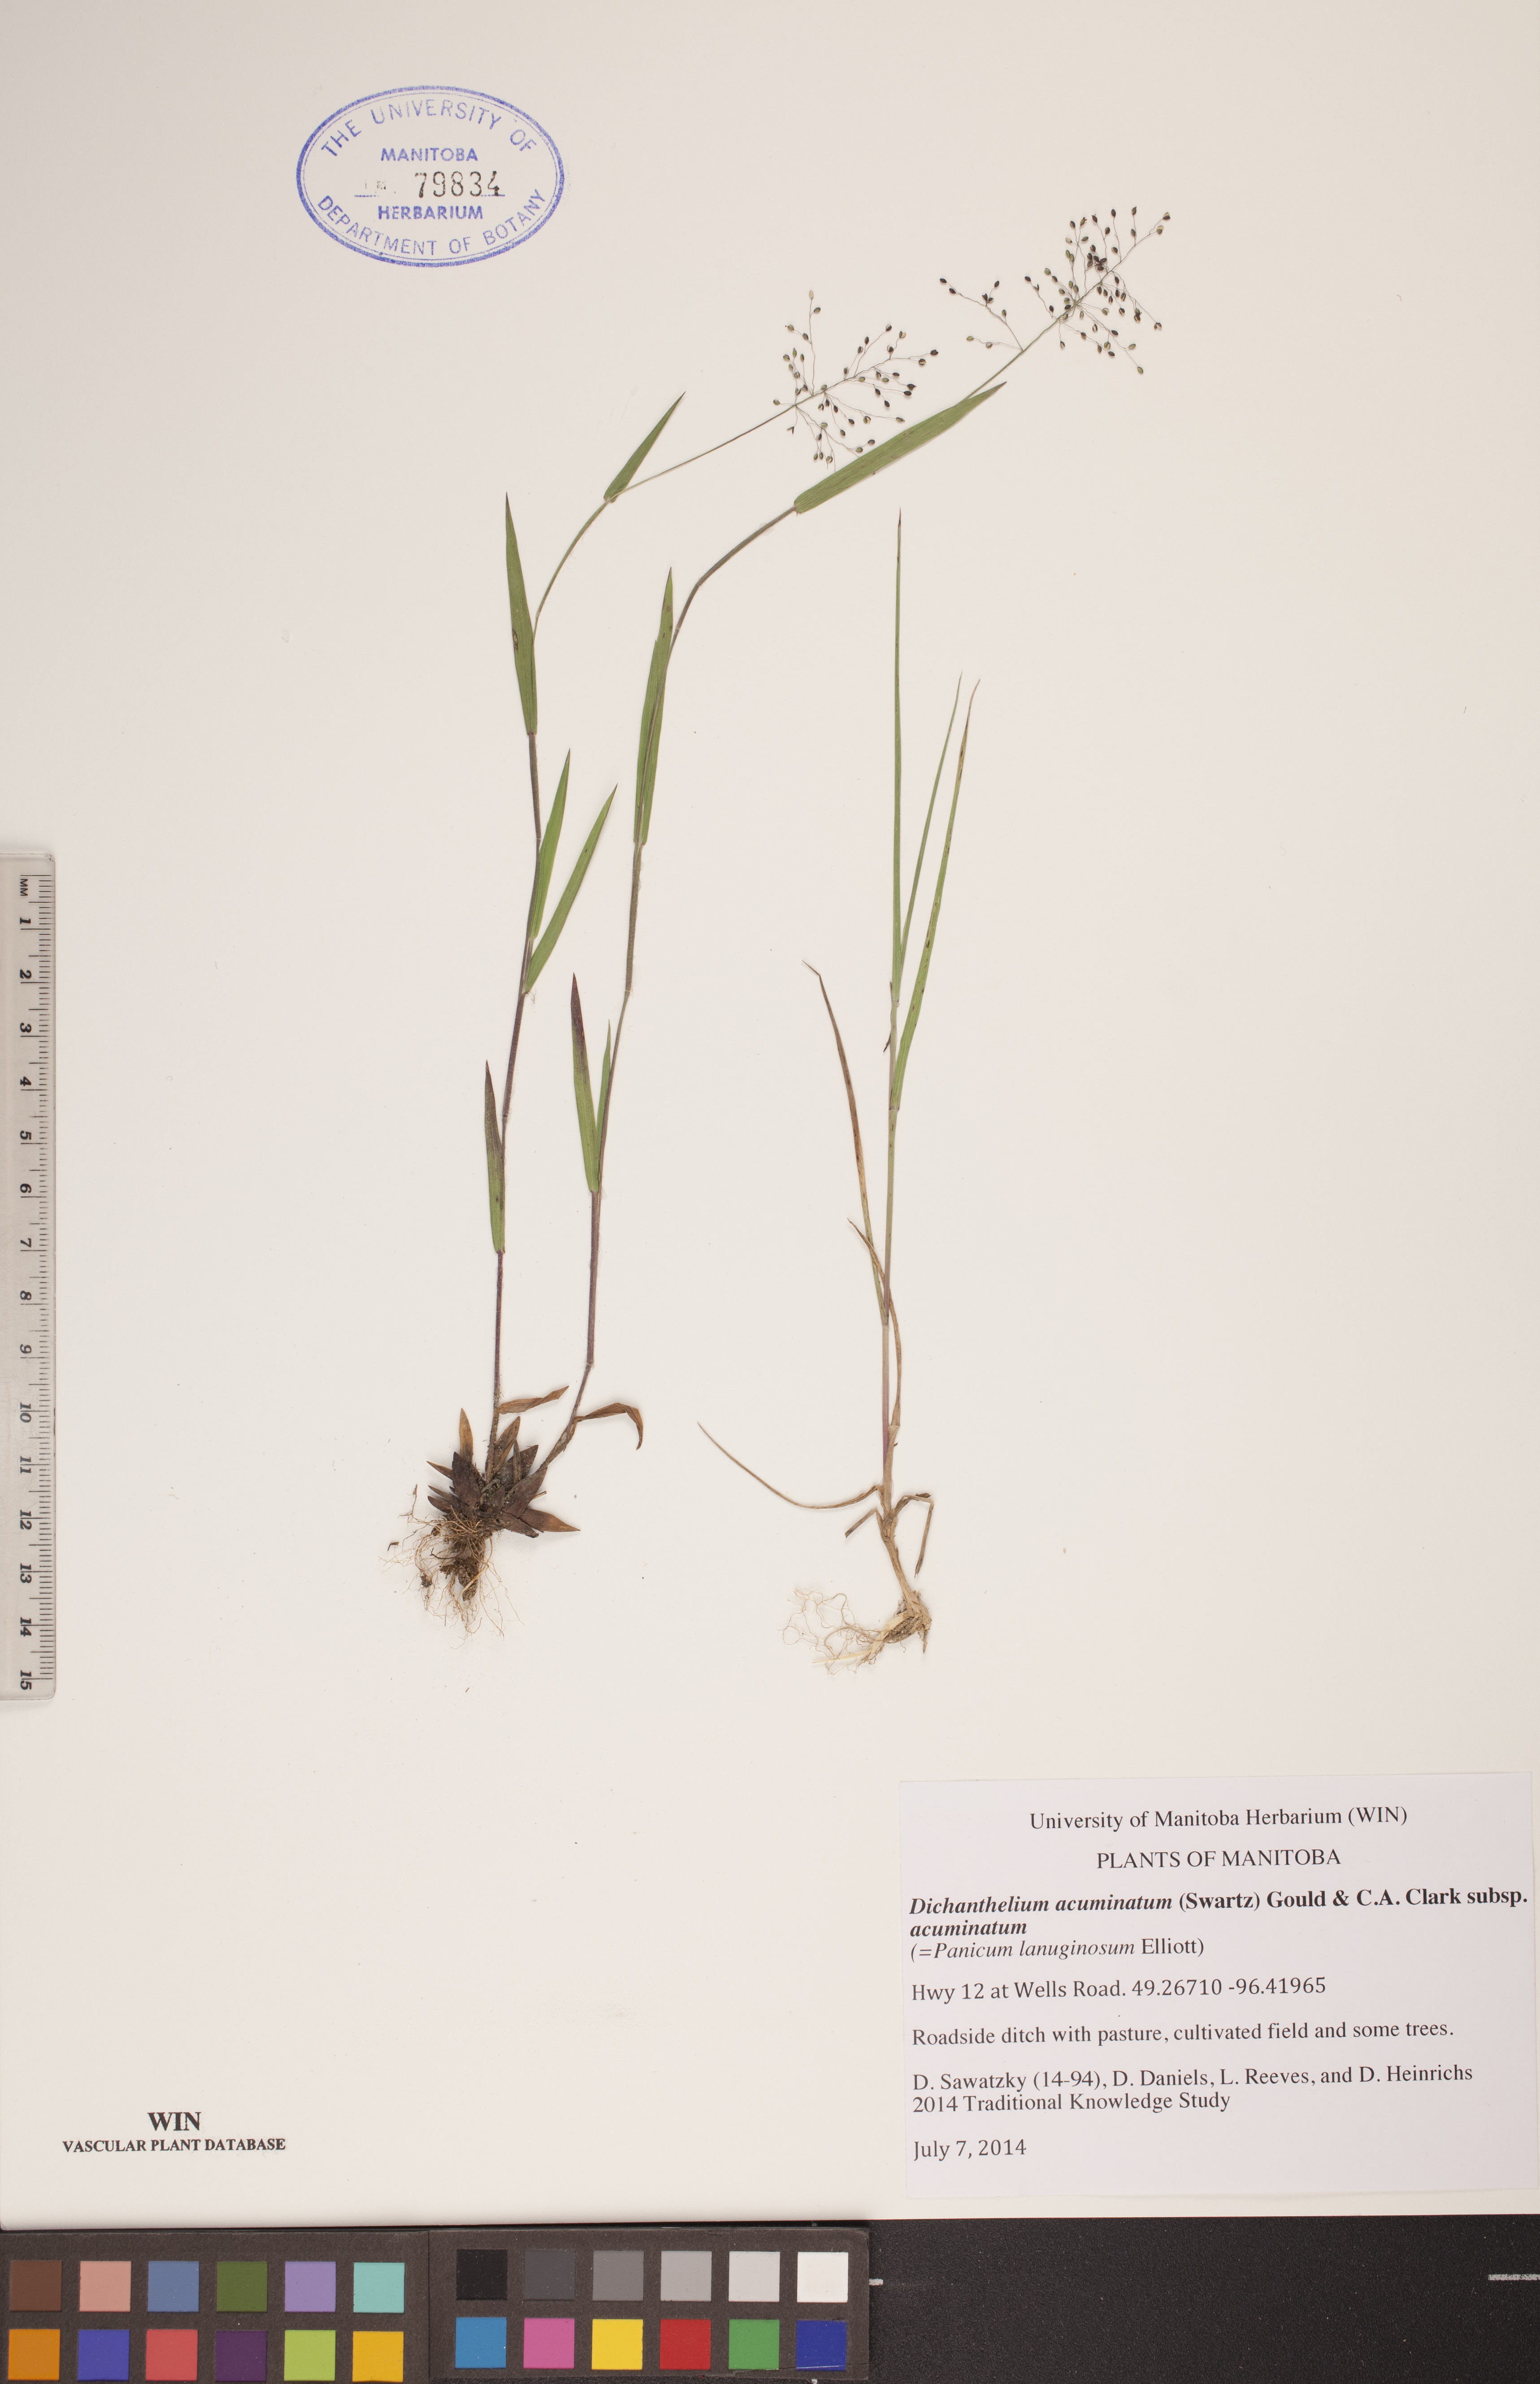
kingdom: Plantae
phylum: Tracheophyta
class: Liliopsida
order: Poales
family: Poaceae
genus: Dichanthelium
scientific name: Dichanthelium acuminatum
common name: Hairy panic grass
